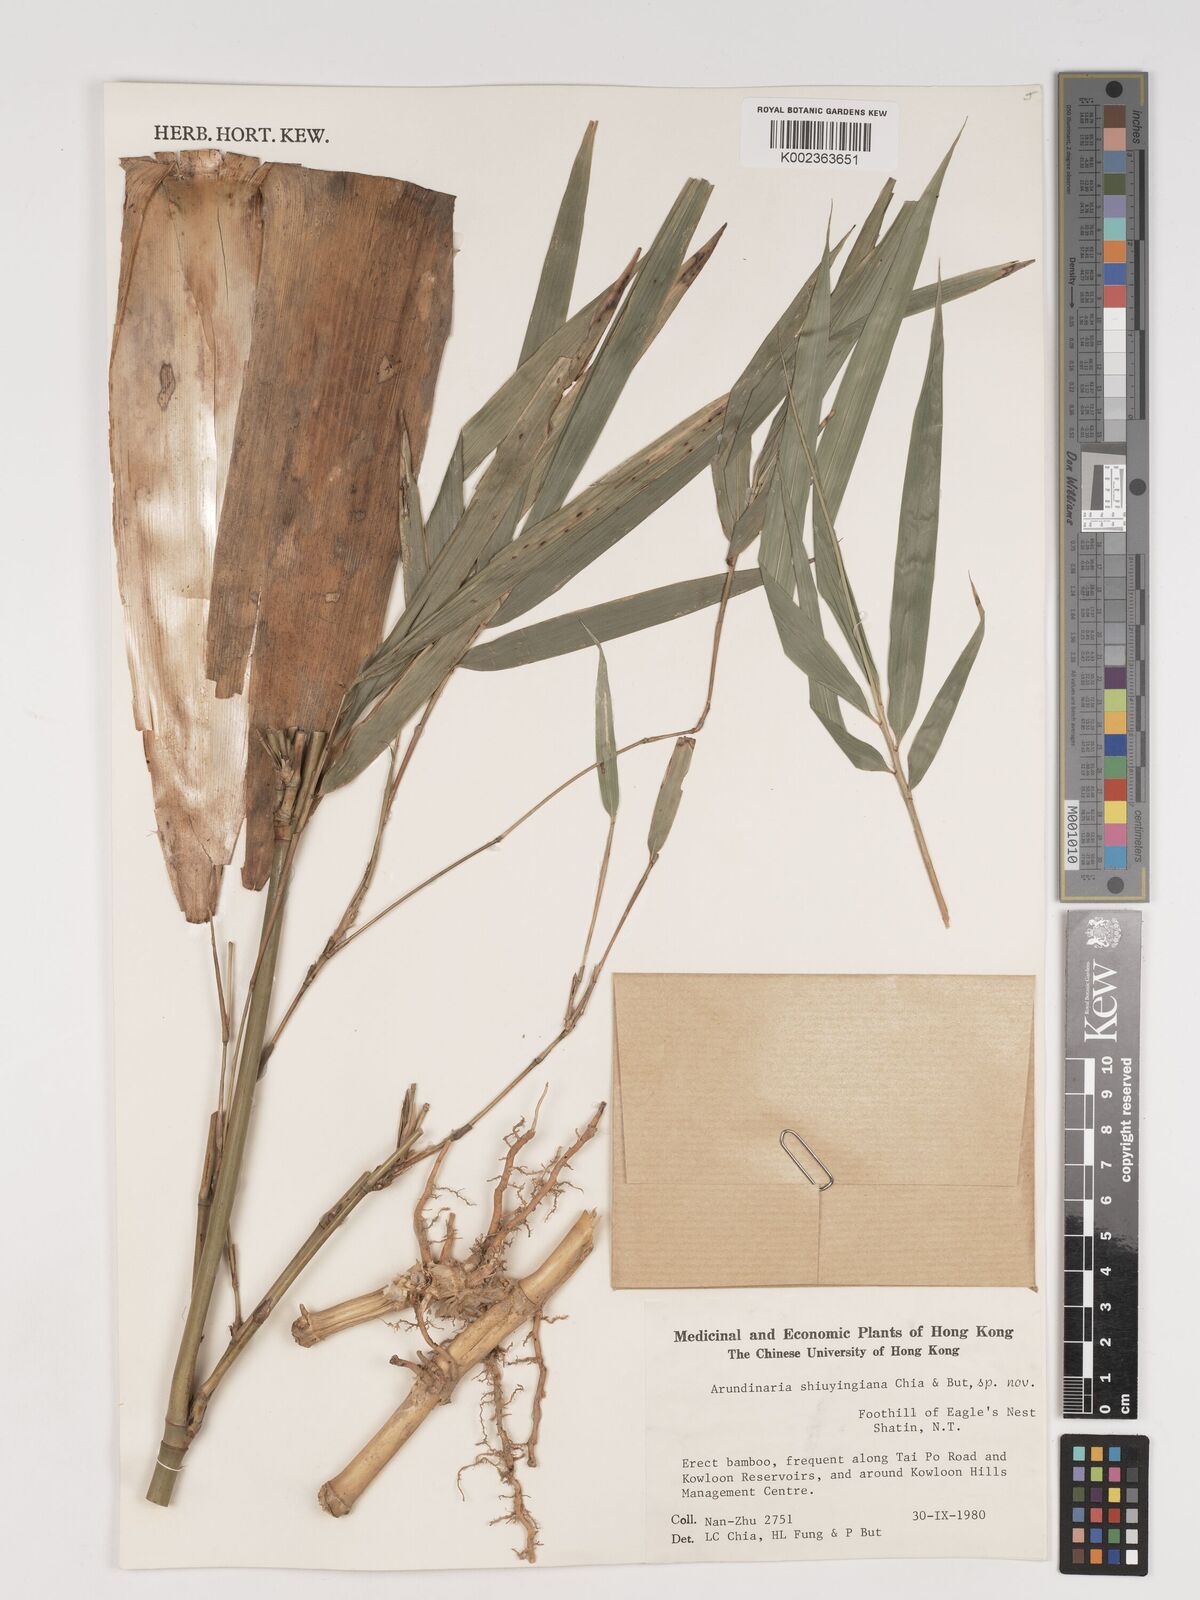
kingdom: Plantae
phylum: Tracheophyta
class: Liliopsida
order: Poales
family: Poaceae
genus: Oligostachyum
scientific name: Oligostachyum shiuyingianum
